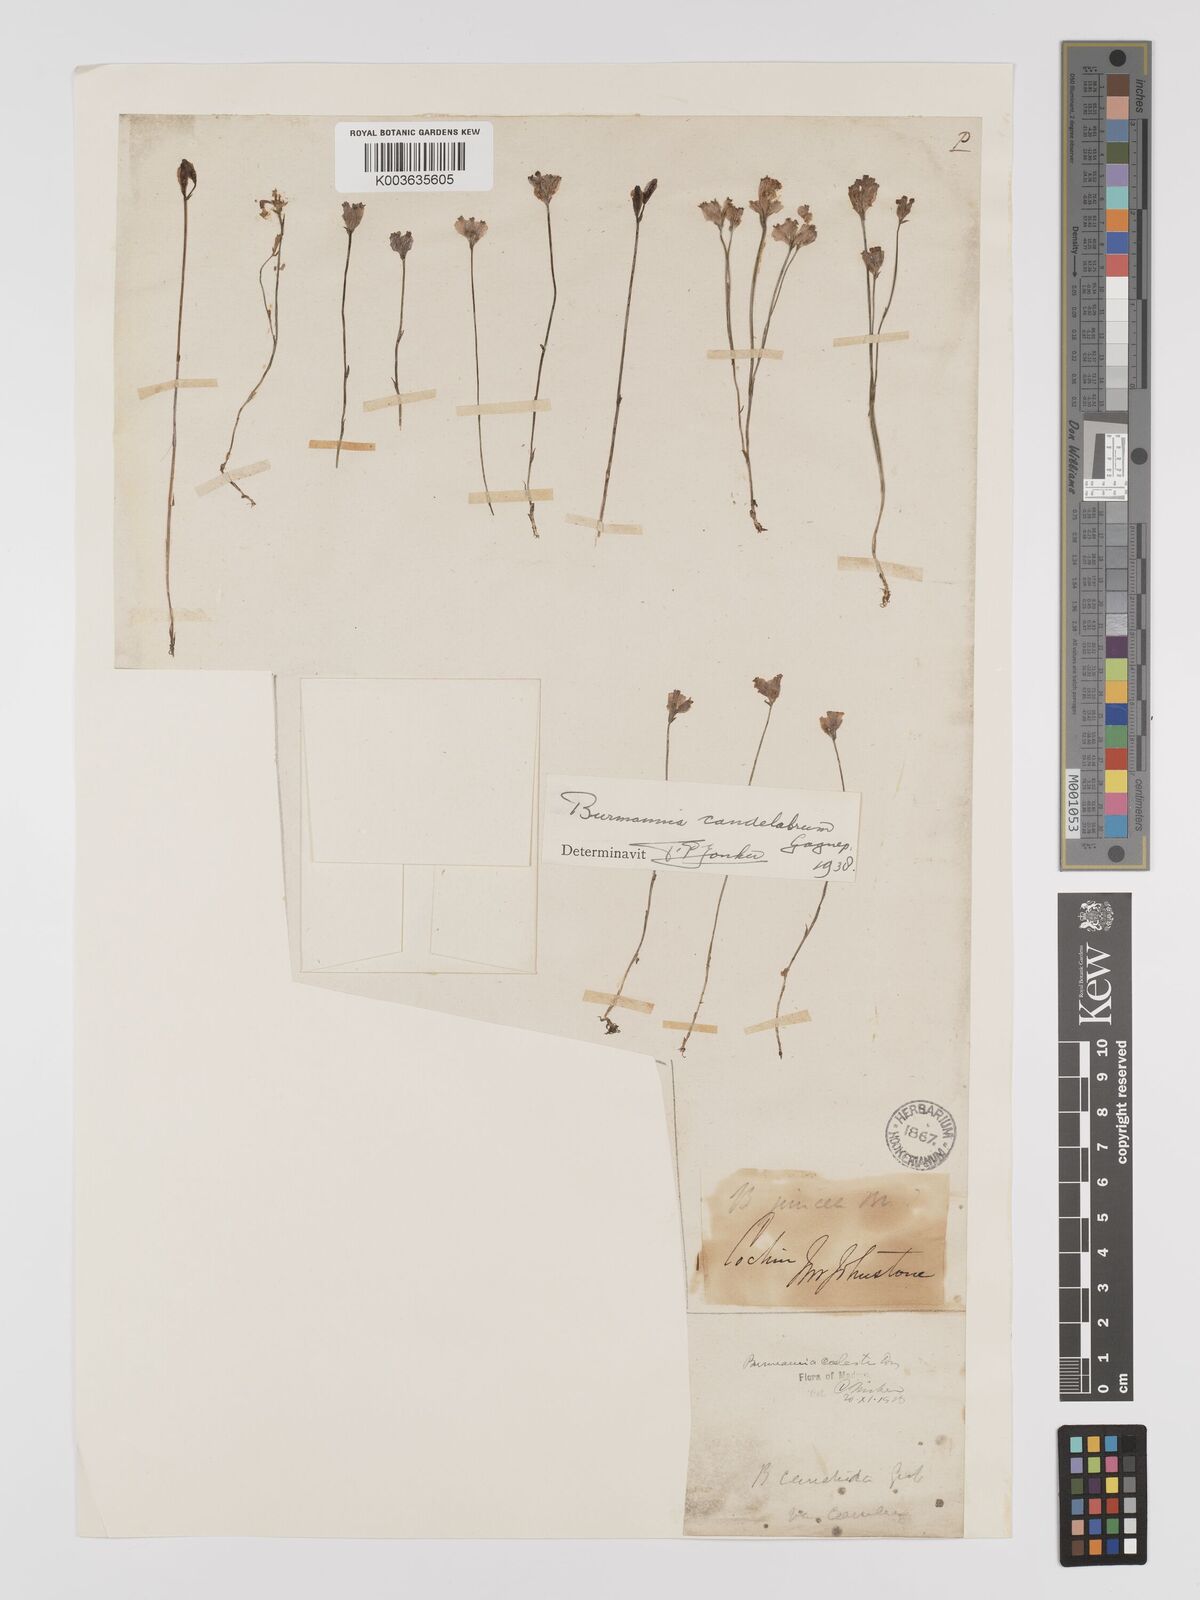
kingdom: Plantae
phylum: Tracheophyta
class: Liliopsida
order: Dioscoreales
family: Burmanniaceae
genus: Burmannia
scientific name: Burmannia candelabrum
